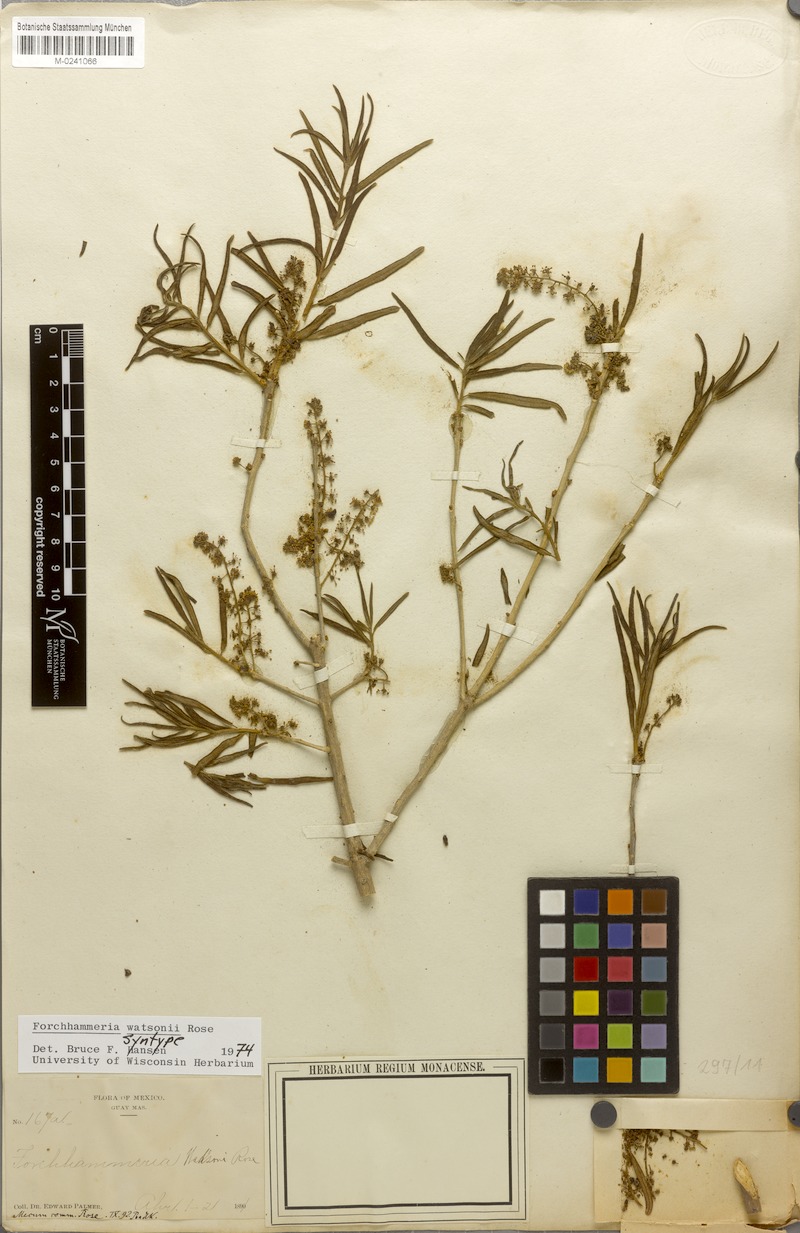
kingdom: Plantae
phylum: Tracheophyta
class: Magnoliopsida
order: Brassicales
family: Stixaceae
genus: Forchhammeria
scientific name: Forchhammeria watsonii
